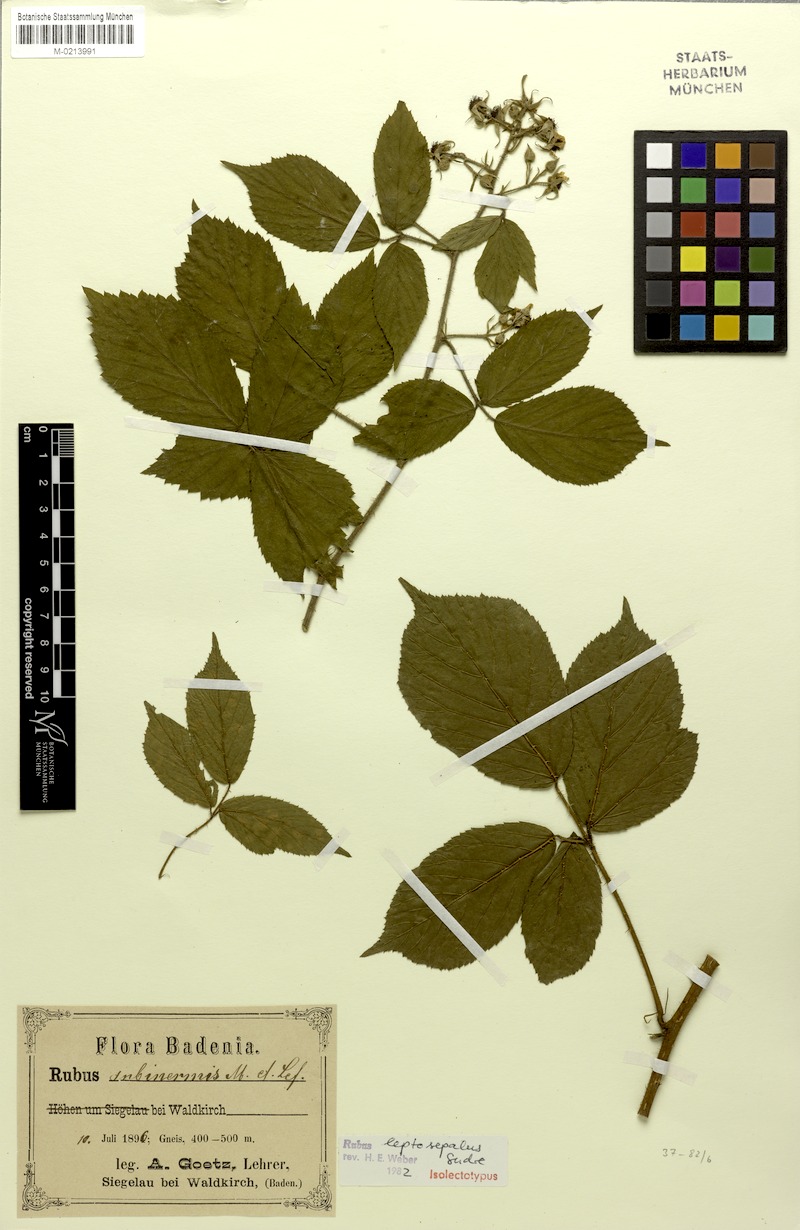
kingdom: Plantae
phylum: Tracheophyta
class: Magnoliopsida
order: Rosales
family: Rosaceae
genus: Rubus
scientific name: Rubus leptosepalus
